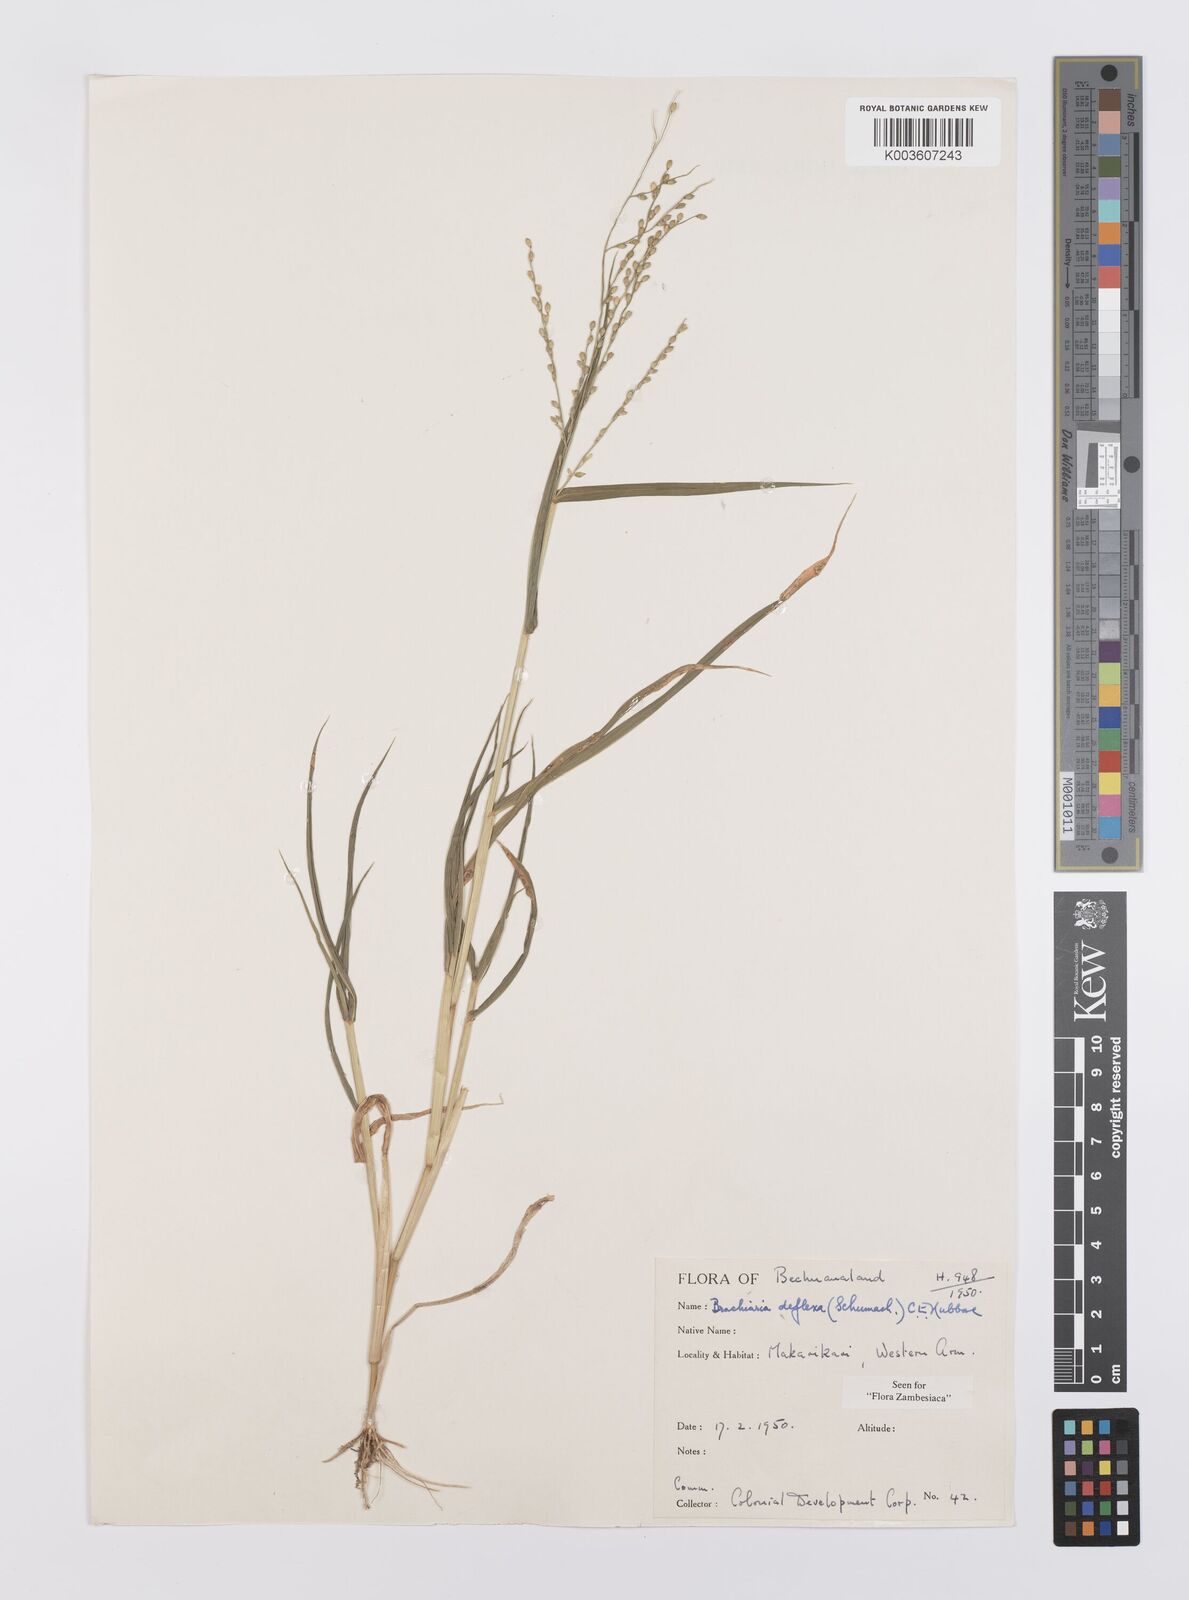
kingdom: Plantae
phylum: Tracheophyta
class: Liliopsida
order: Poales
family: Poaceae
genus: Urochloa
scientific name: Urochloa deflexa
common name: Guinea millet
